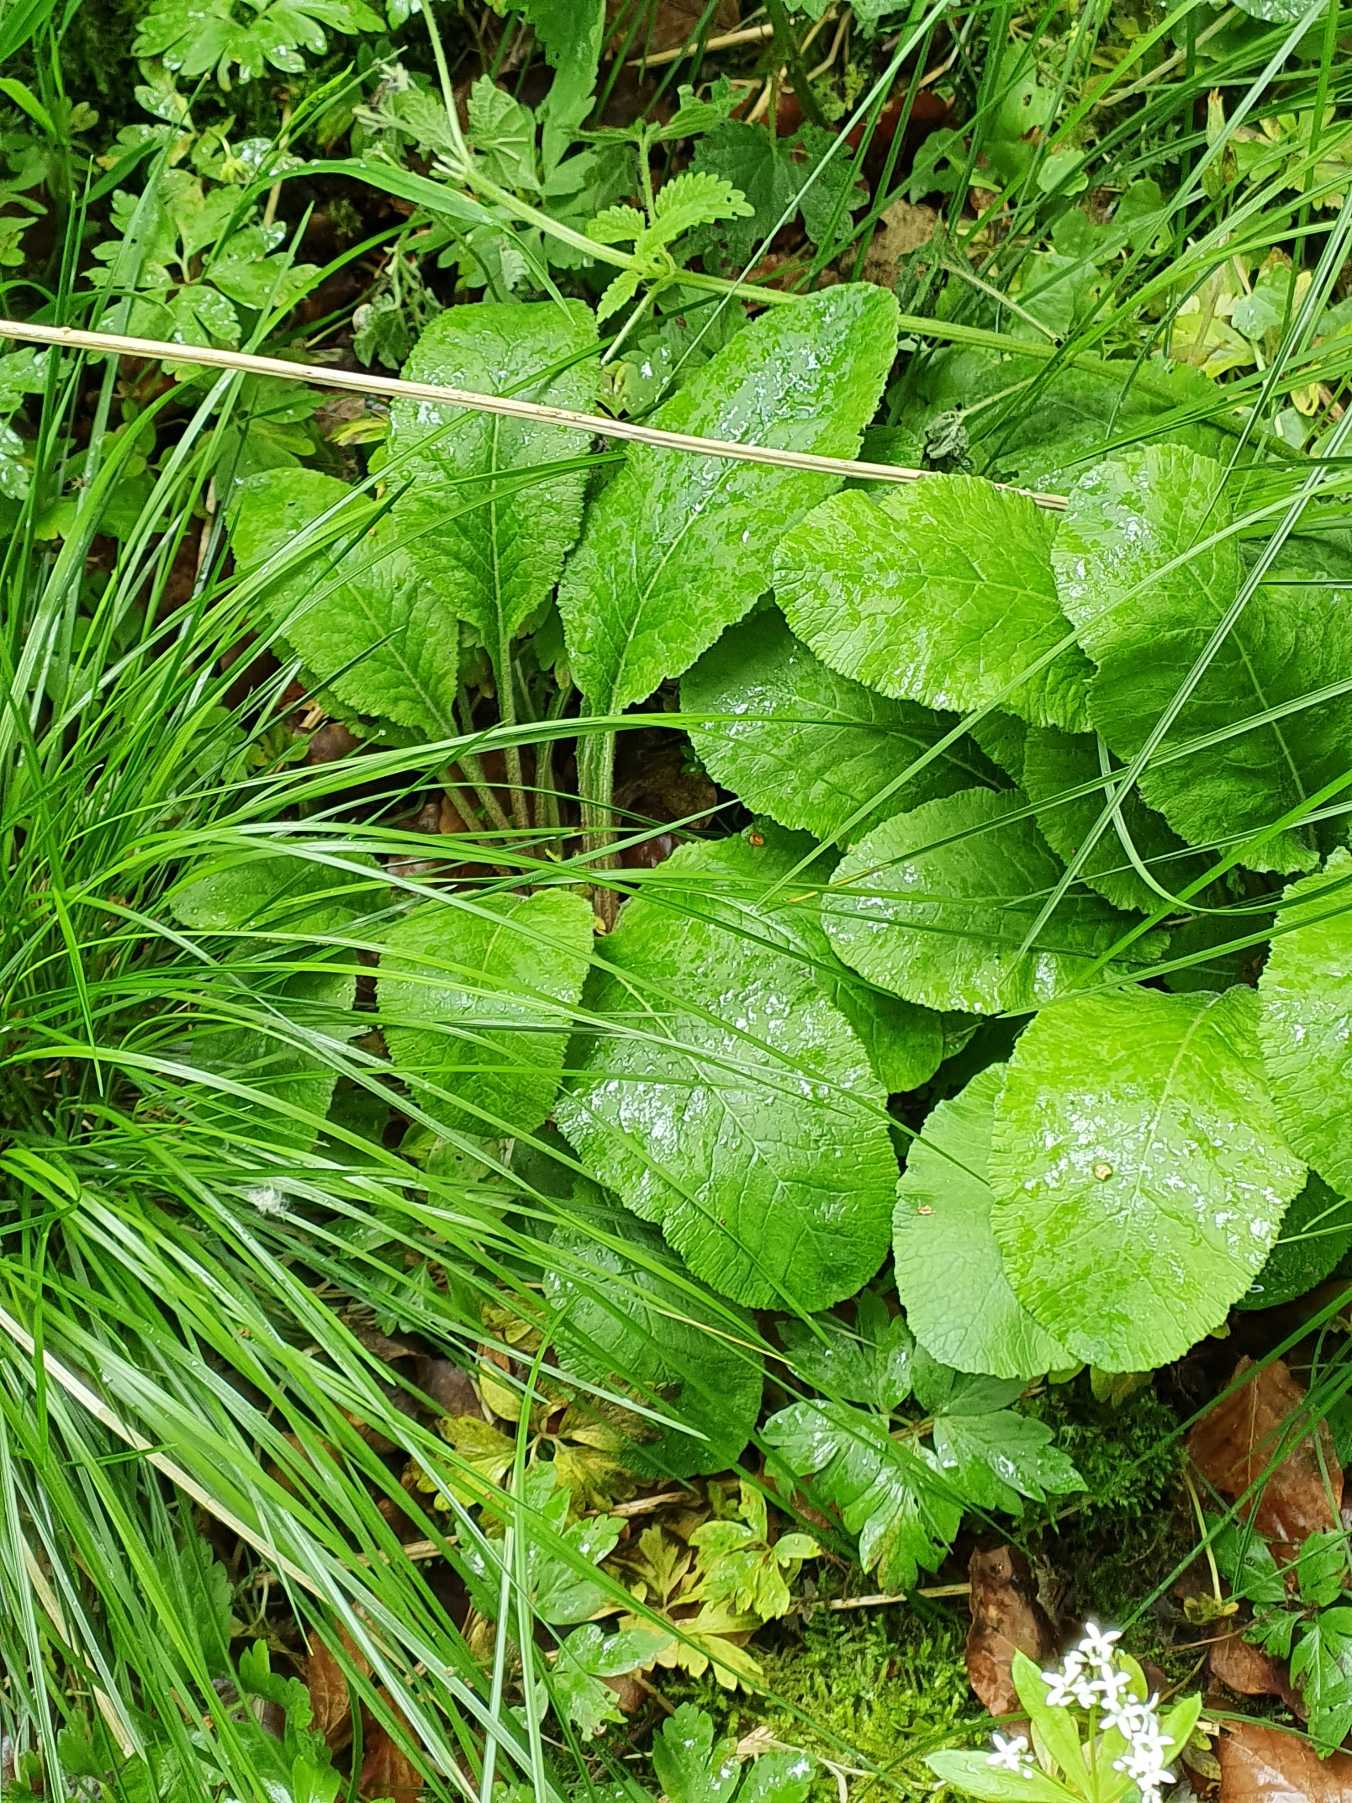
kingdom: Plantae
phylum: Tracheophyta
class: Magnoliopsida
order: Ericales
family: Primulaceae
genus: Primula
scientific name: Primula elatior
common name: Fladkravet kodriver
